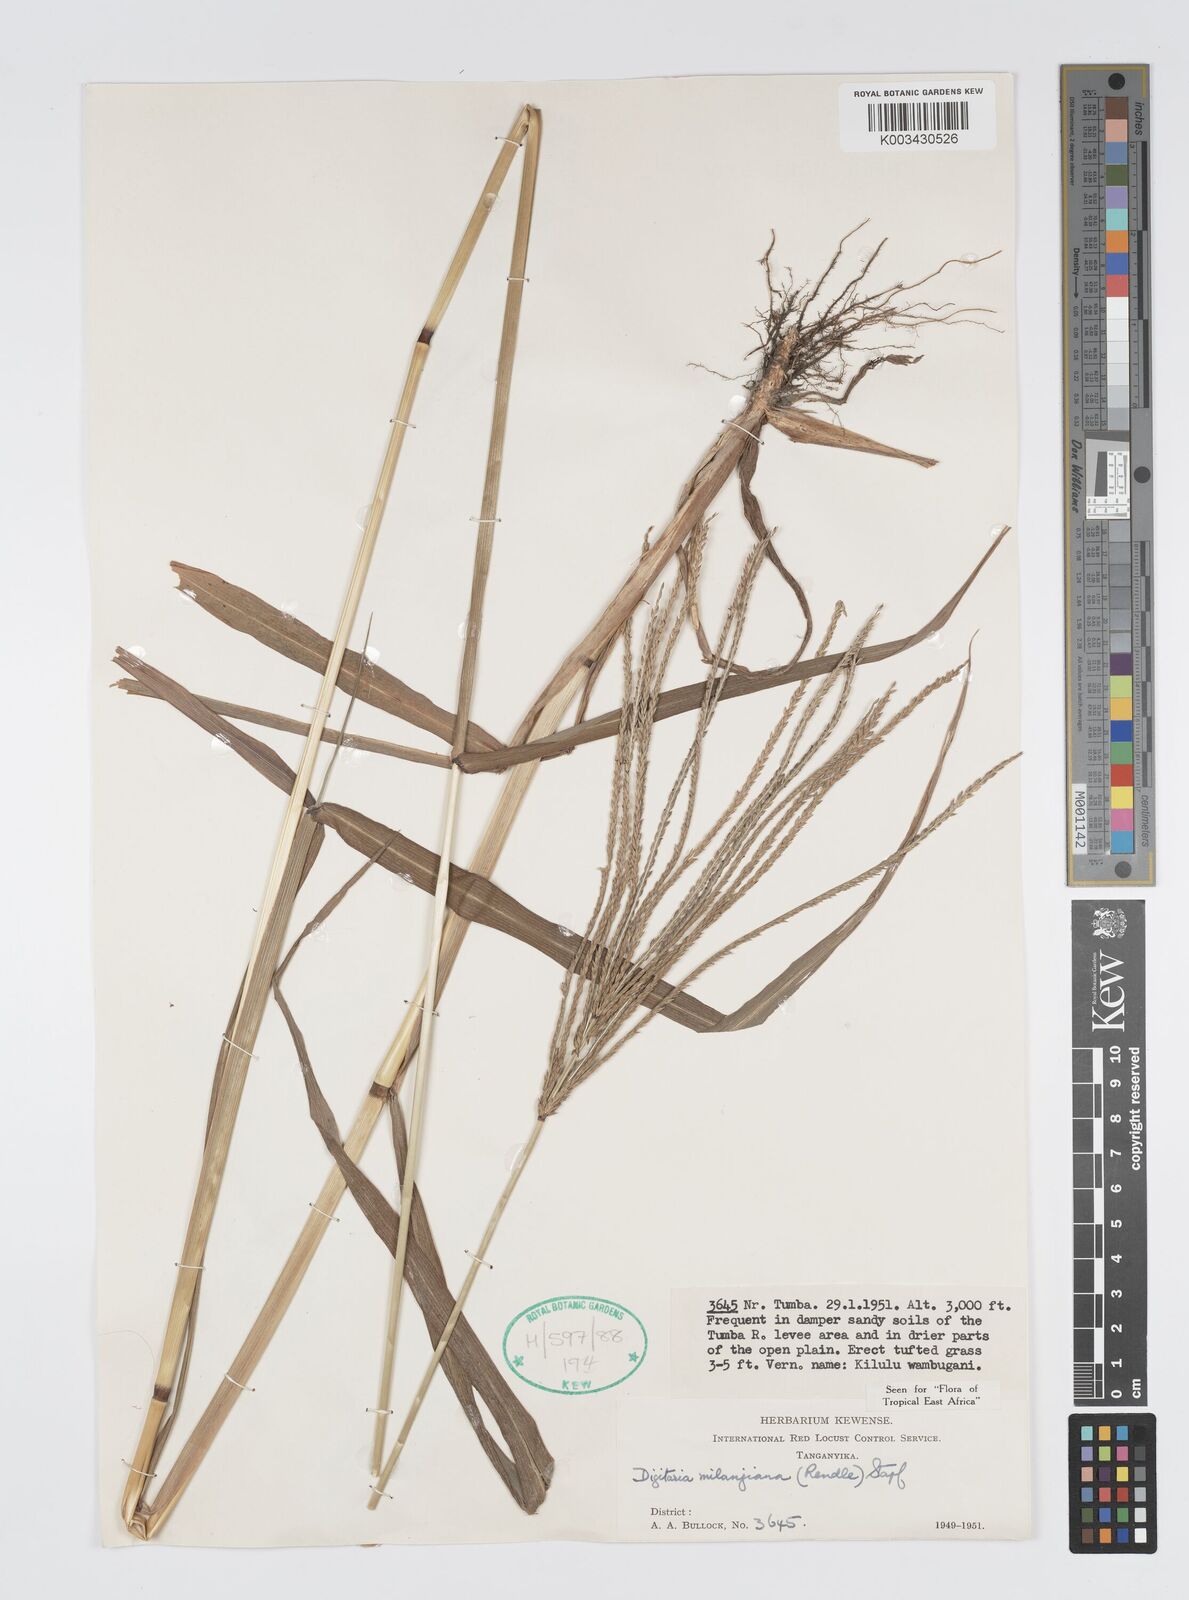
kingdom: Plantae
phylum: Tracheophyta
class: Liliopsida
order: Poales
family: Poaceae
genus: Digitaria
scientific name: Digitaria milanjiana
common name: Madagascar crabgrass
